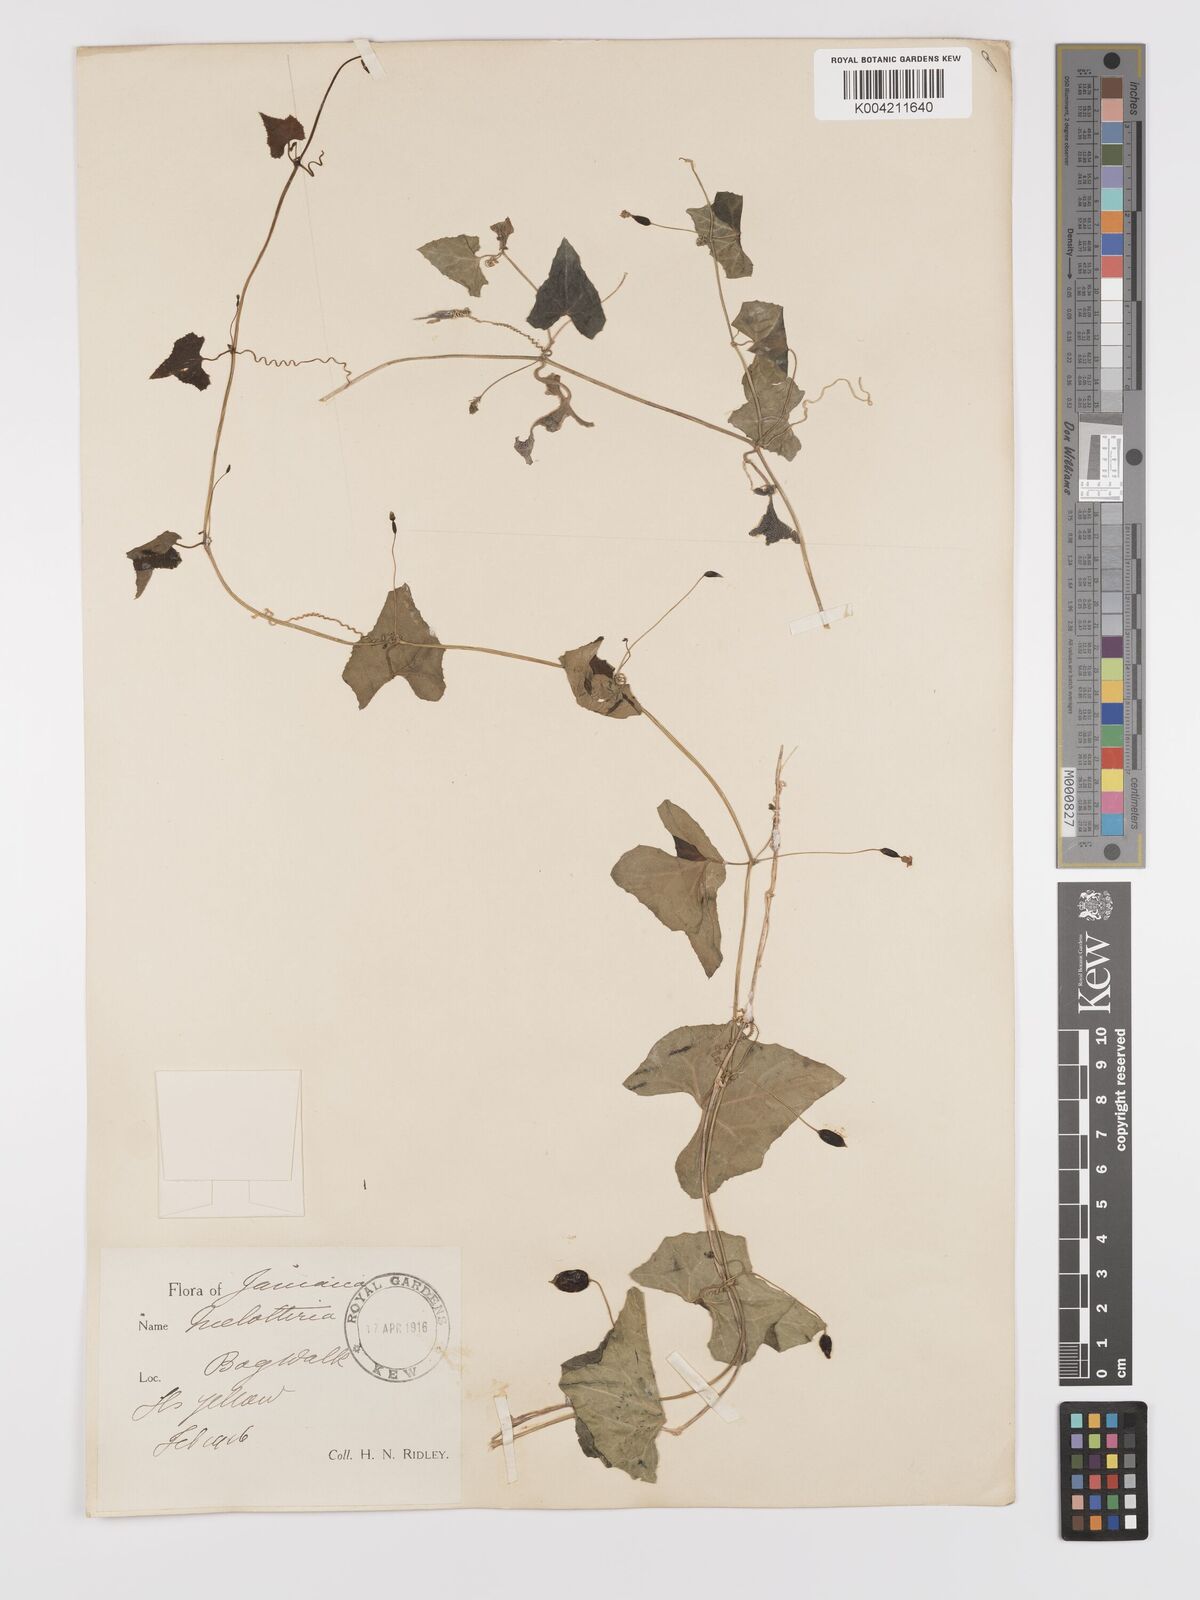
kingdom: Plantae
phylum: Tracheophyta
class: Magnoliopsida
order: Cucurbitales
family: Cucurbitaceae
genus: Melothria
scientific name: Melothria
